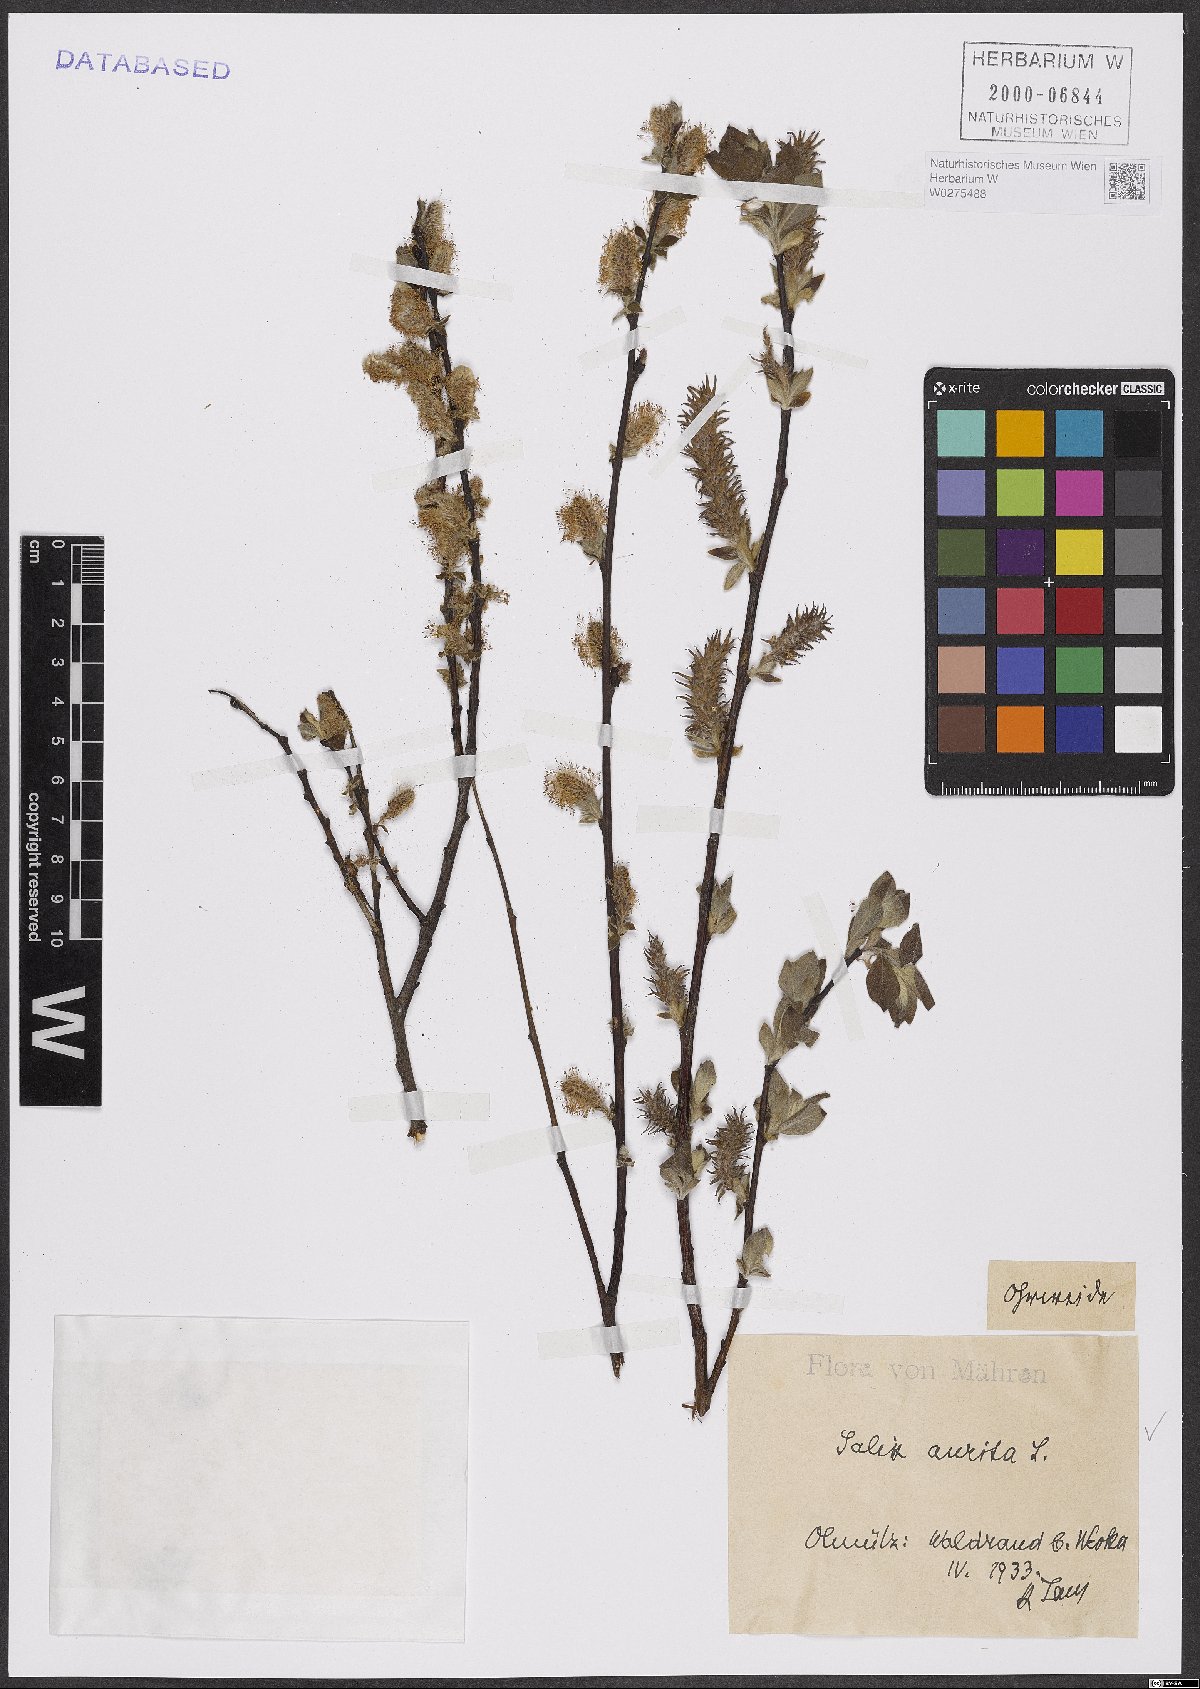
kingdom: Plantae
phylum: Tracheophyta
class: Magnoliopsida
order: Malpighiales
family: Salicaceae
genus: Salix
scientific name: Salix aurita
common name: Eared willow
